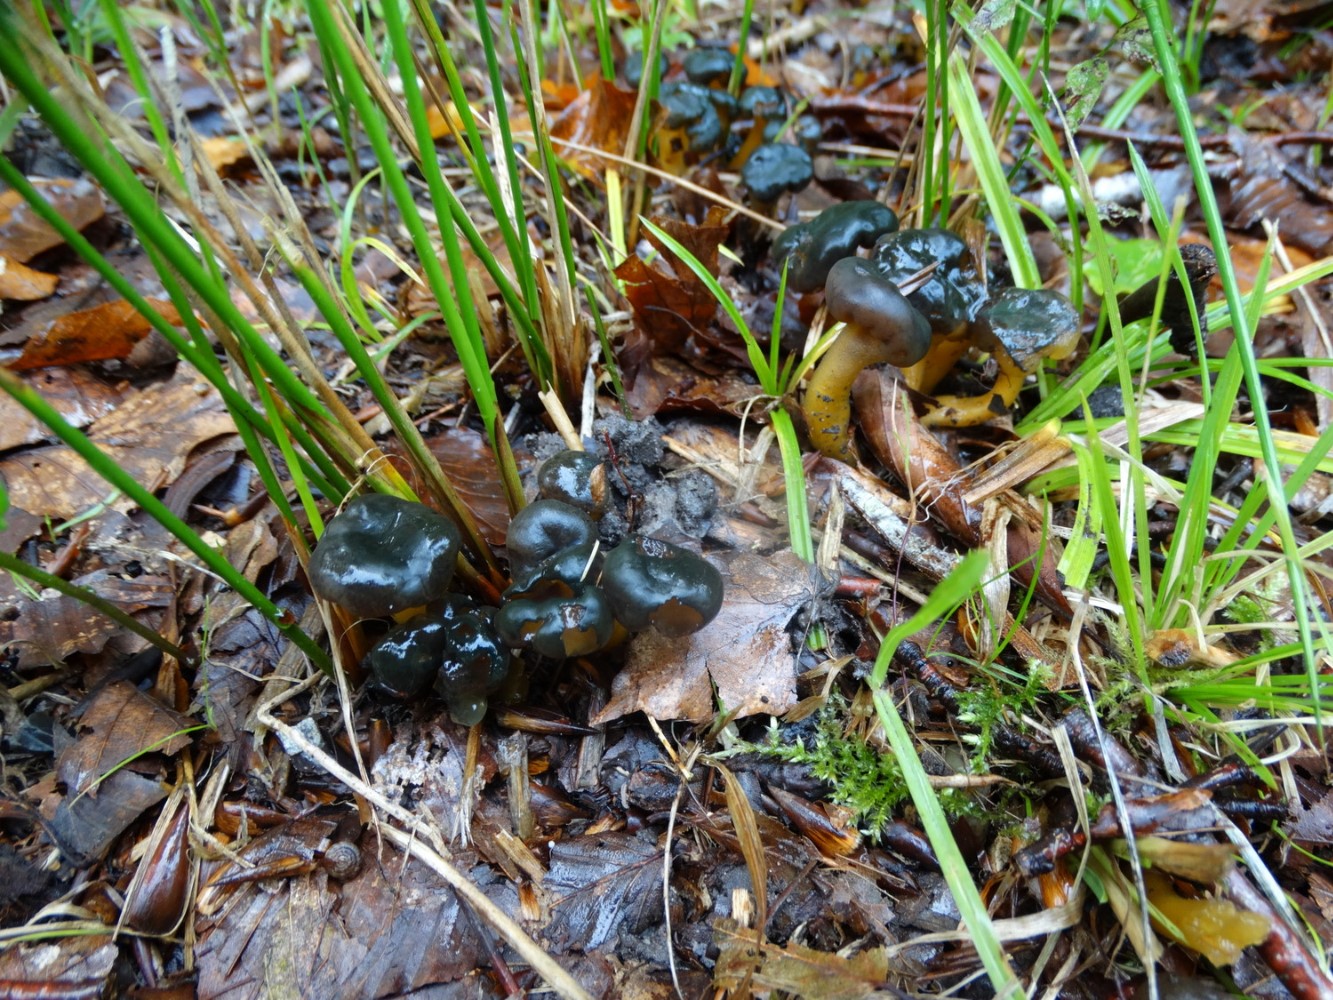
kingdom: Fungi
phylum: Ascomycota
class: Leotiomycetes
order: Leotiales
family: Leotiaceae
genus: Leotia
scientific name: Leotia lubrica
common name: ravsvamp
